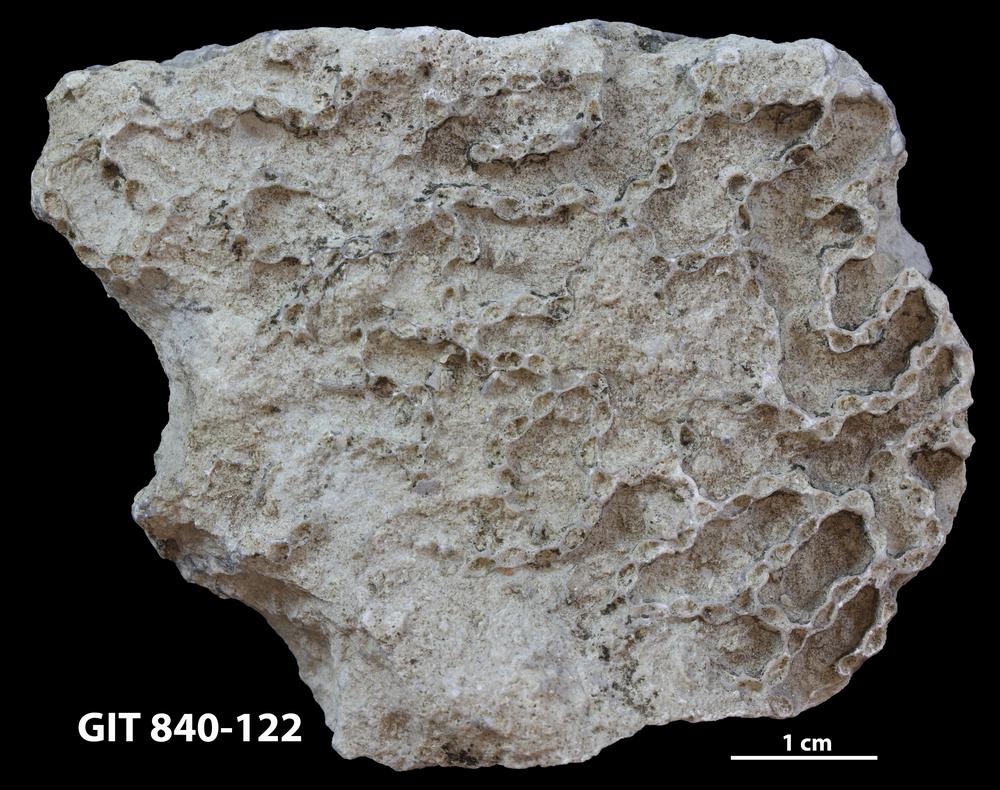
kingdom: Animalia
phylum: Cnidaria
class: Anthozoa
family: Cateniporidae
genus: Catenipora
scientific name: Catenipora
